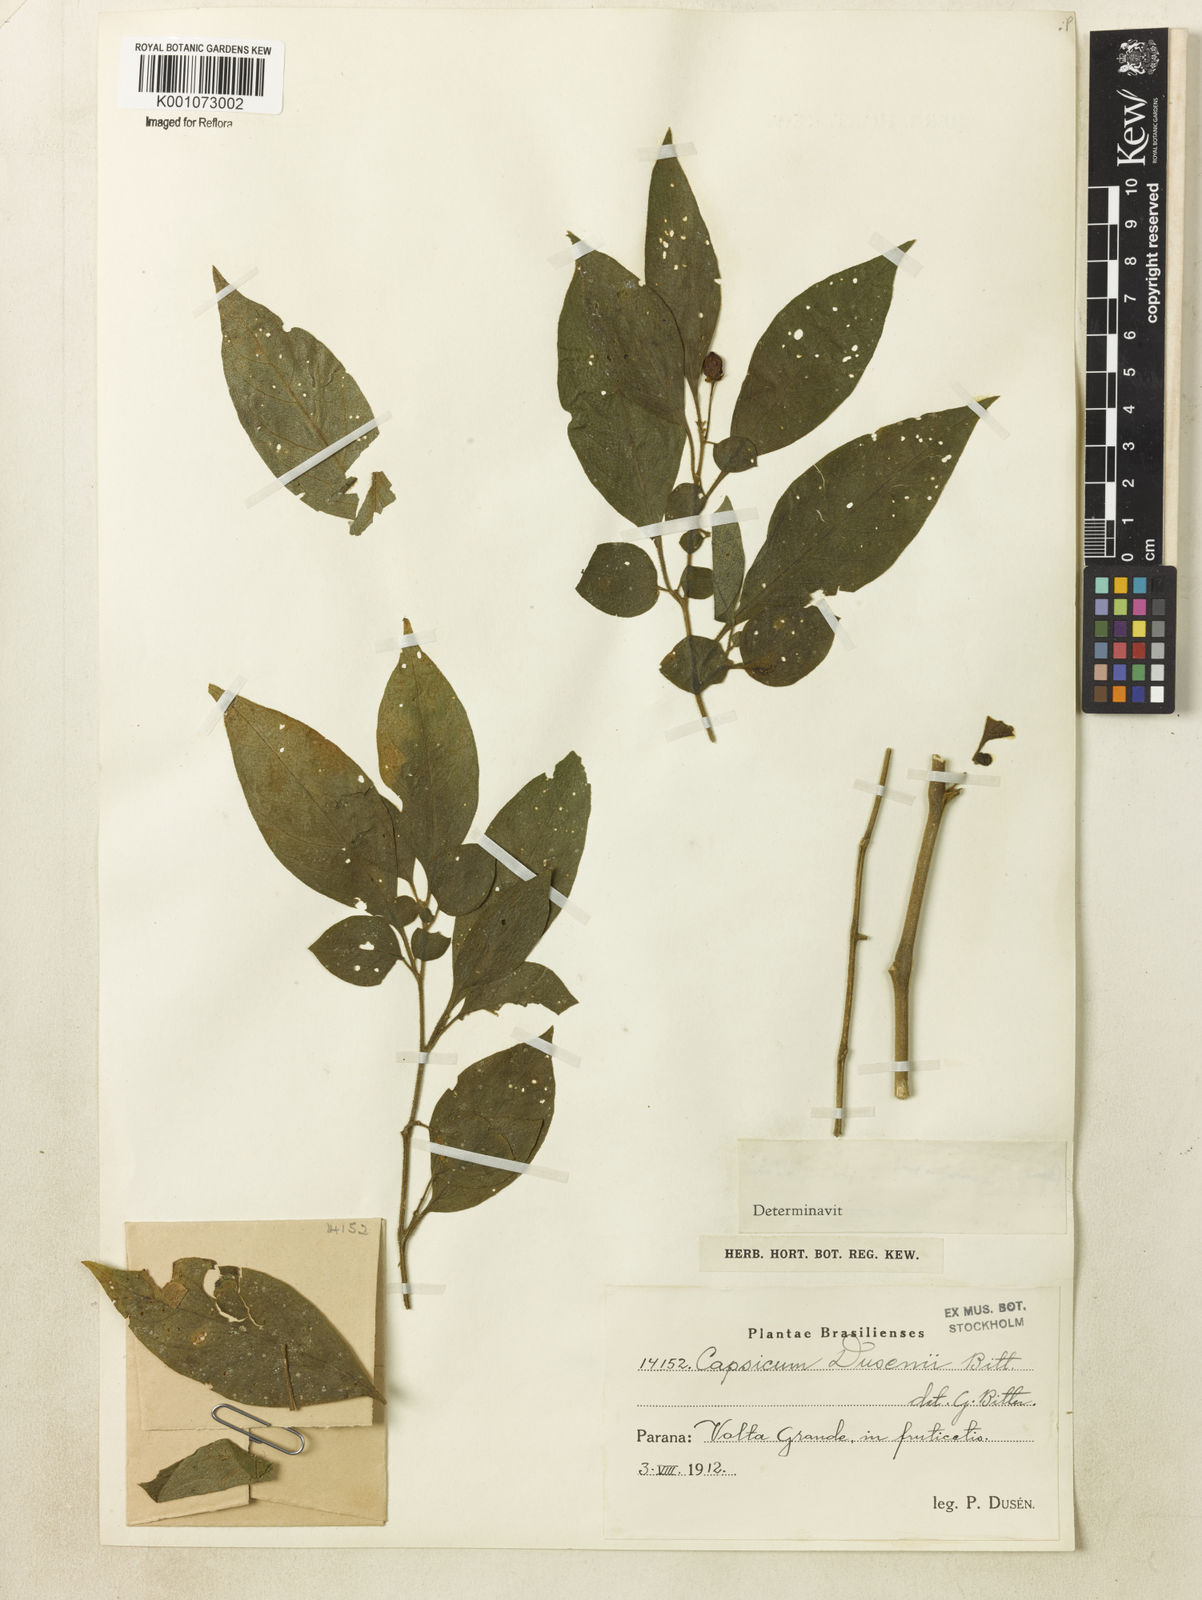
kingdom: Plantae
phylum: Tracheophyta
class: Magnoliopsida
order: Solanales
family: Solanaceae
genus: Capsicum
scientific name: Capsicum cornutum
